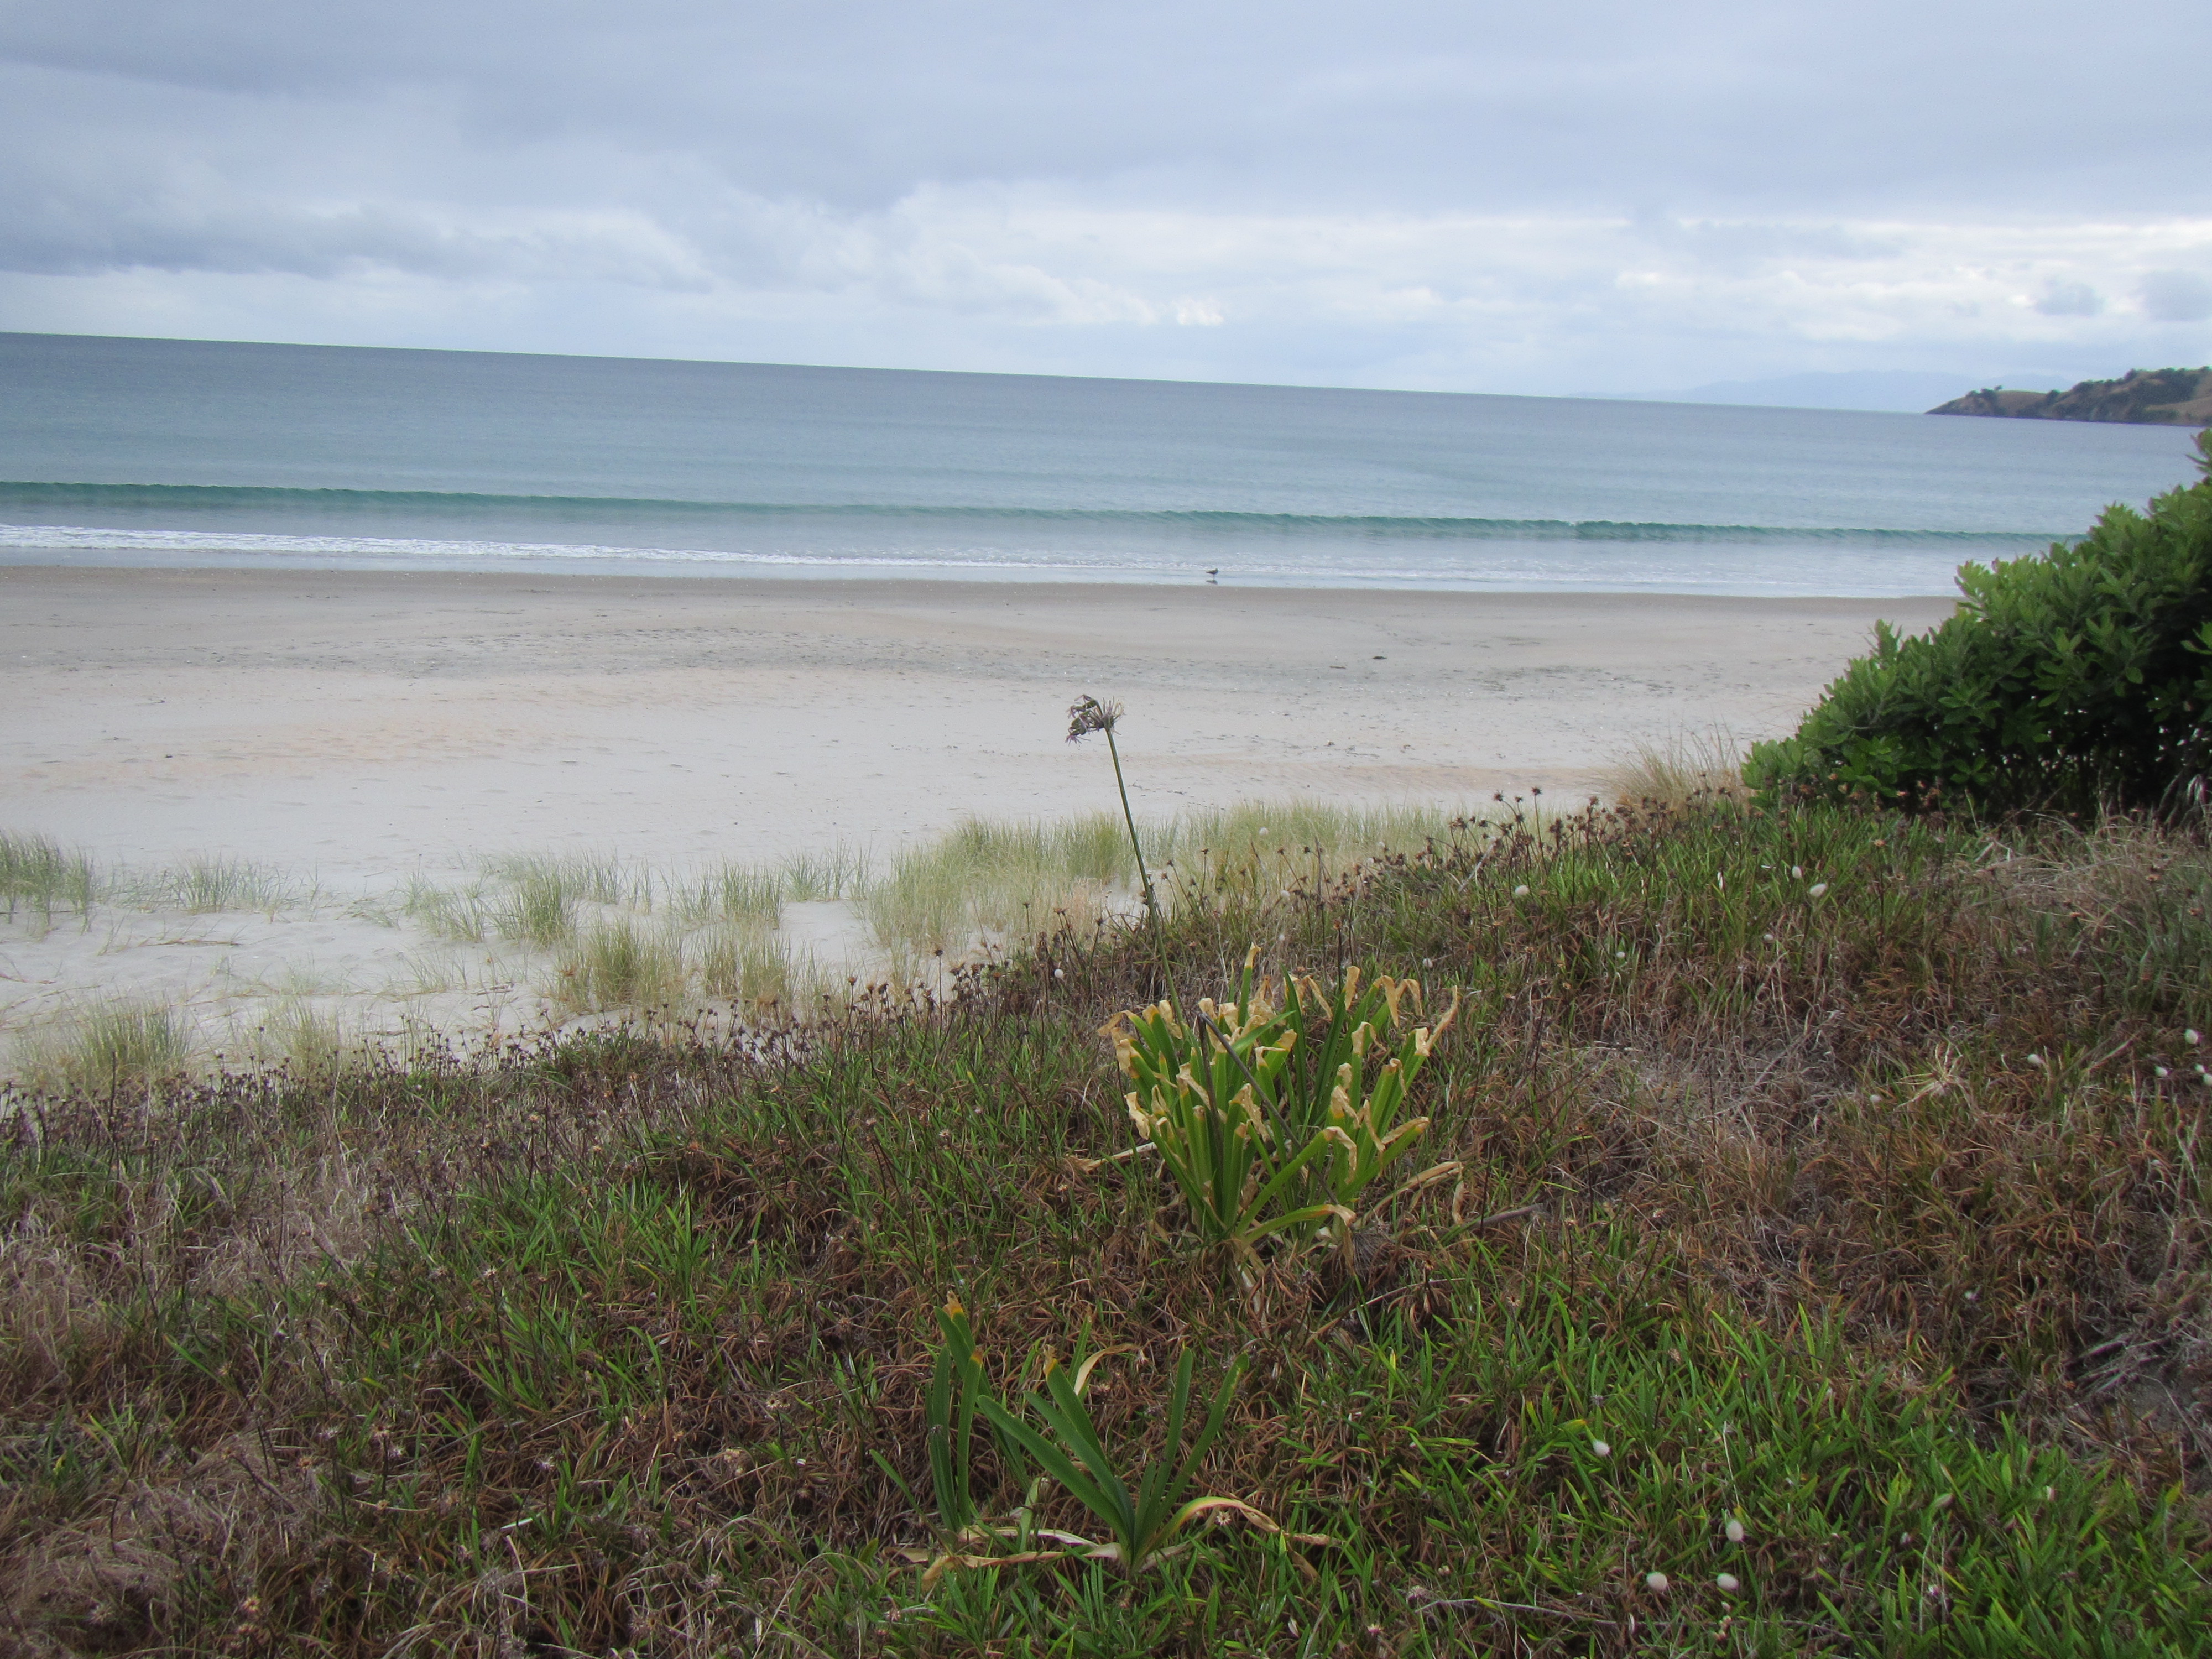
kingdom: Plantae
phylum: Tracheophyta
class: Liliopsida
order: Asparagales
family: Amaryllidaceae
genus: Agapanthus
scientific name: Agapanthus praecox
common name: African-lily
